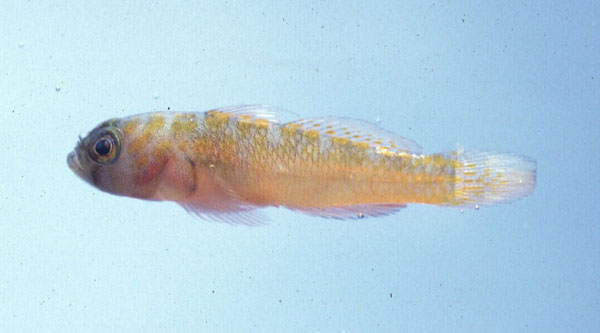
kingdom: Animalia
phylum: Chordata
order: Perciformes
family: Gobiidae
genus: Trimma
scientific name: Trimma
